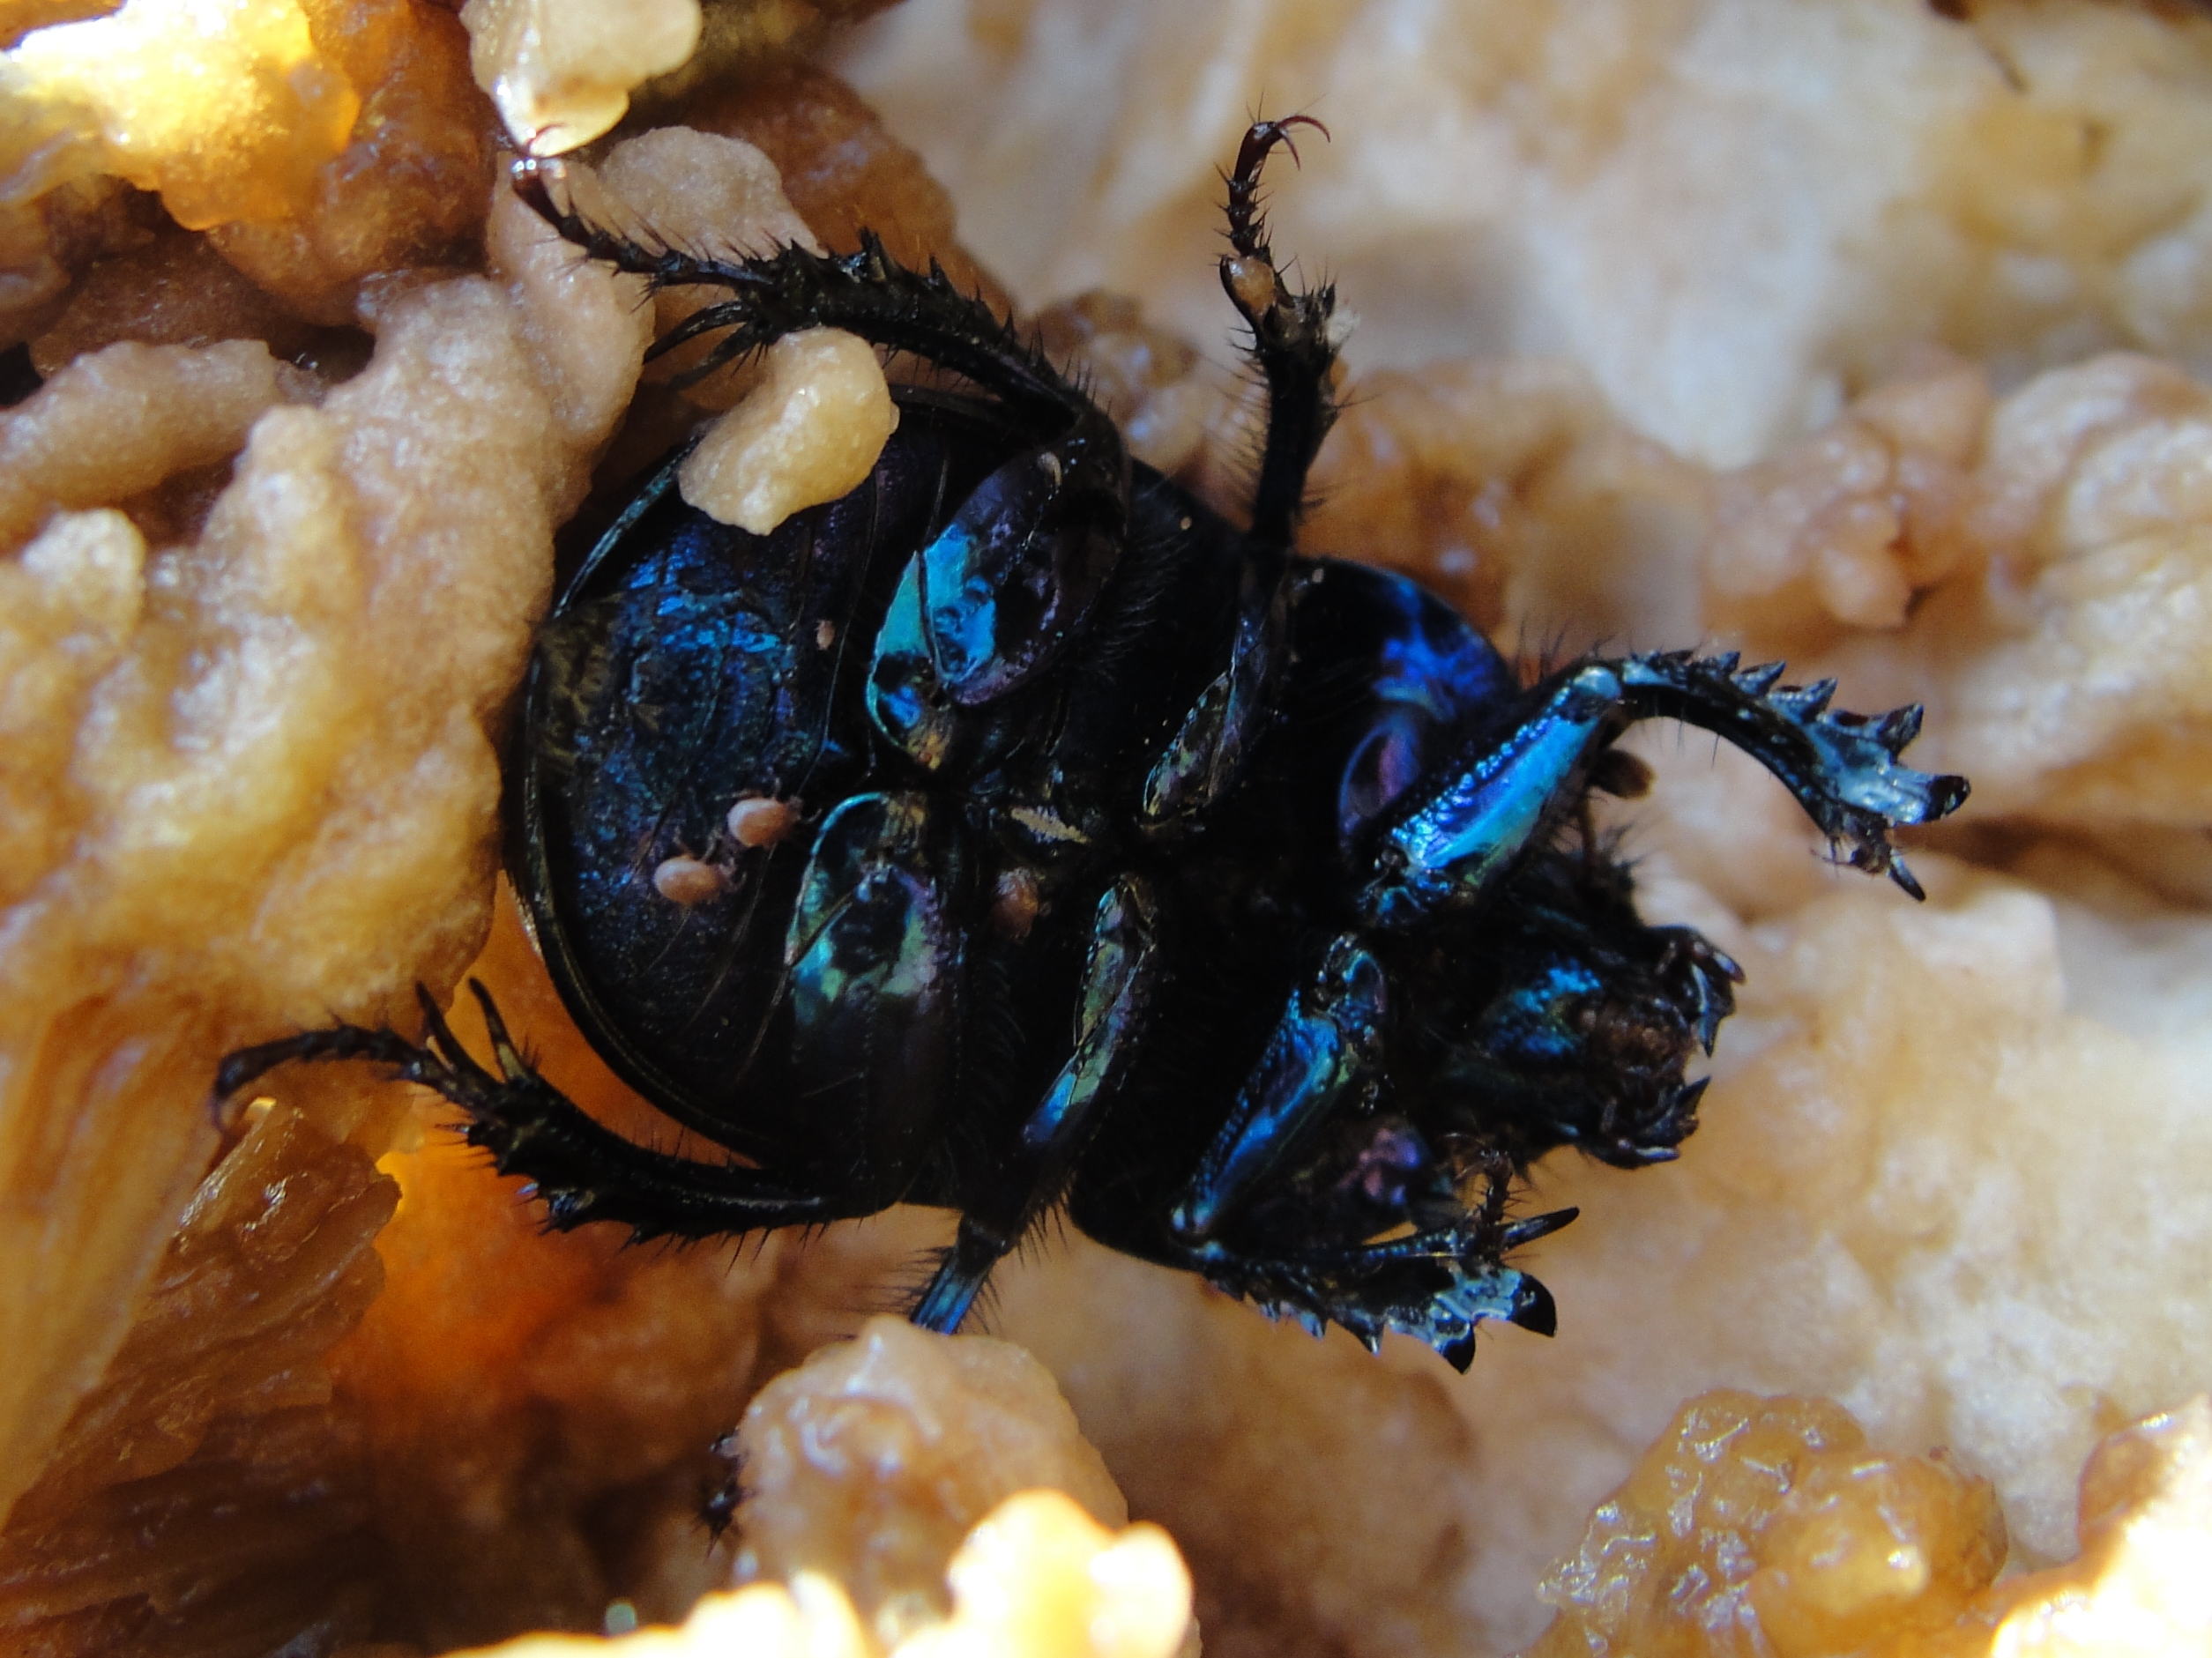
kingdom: Animalia
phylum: Arthropoda
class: Insecta
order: Coleoptera
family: Geotrupidae
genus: Anoplotrupes
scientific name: Anoplotrupes stercorosus
